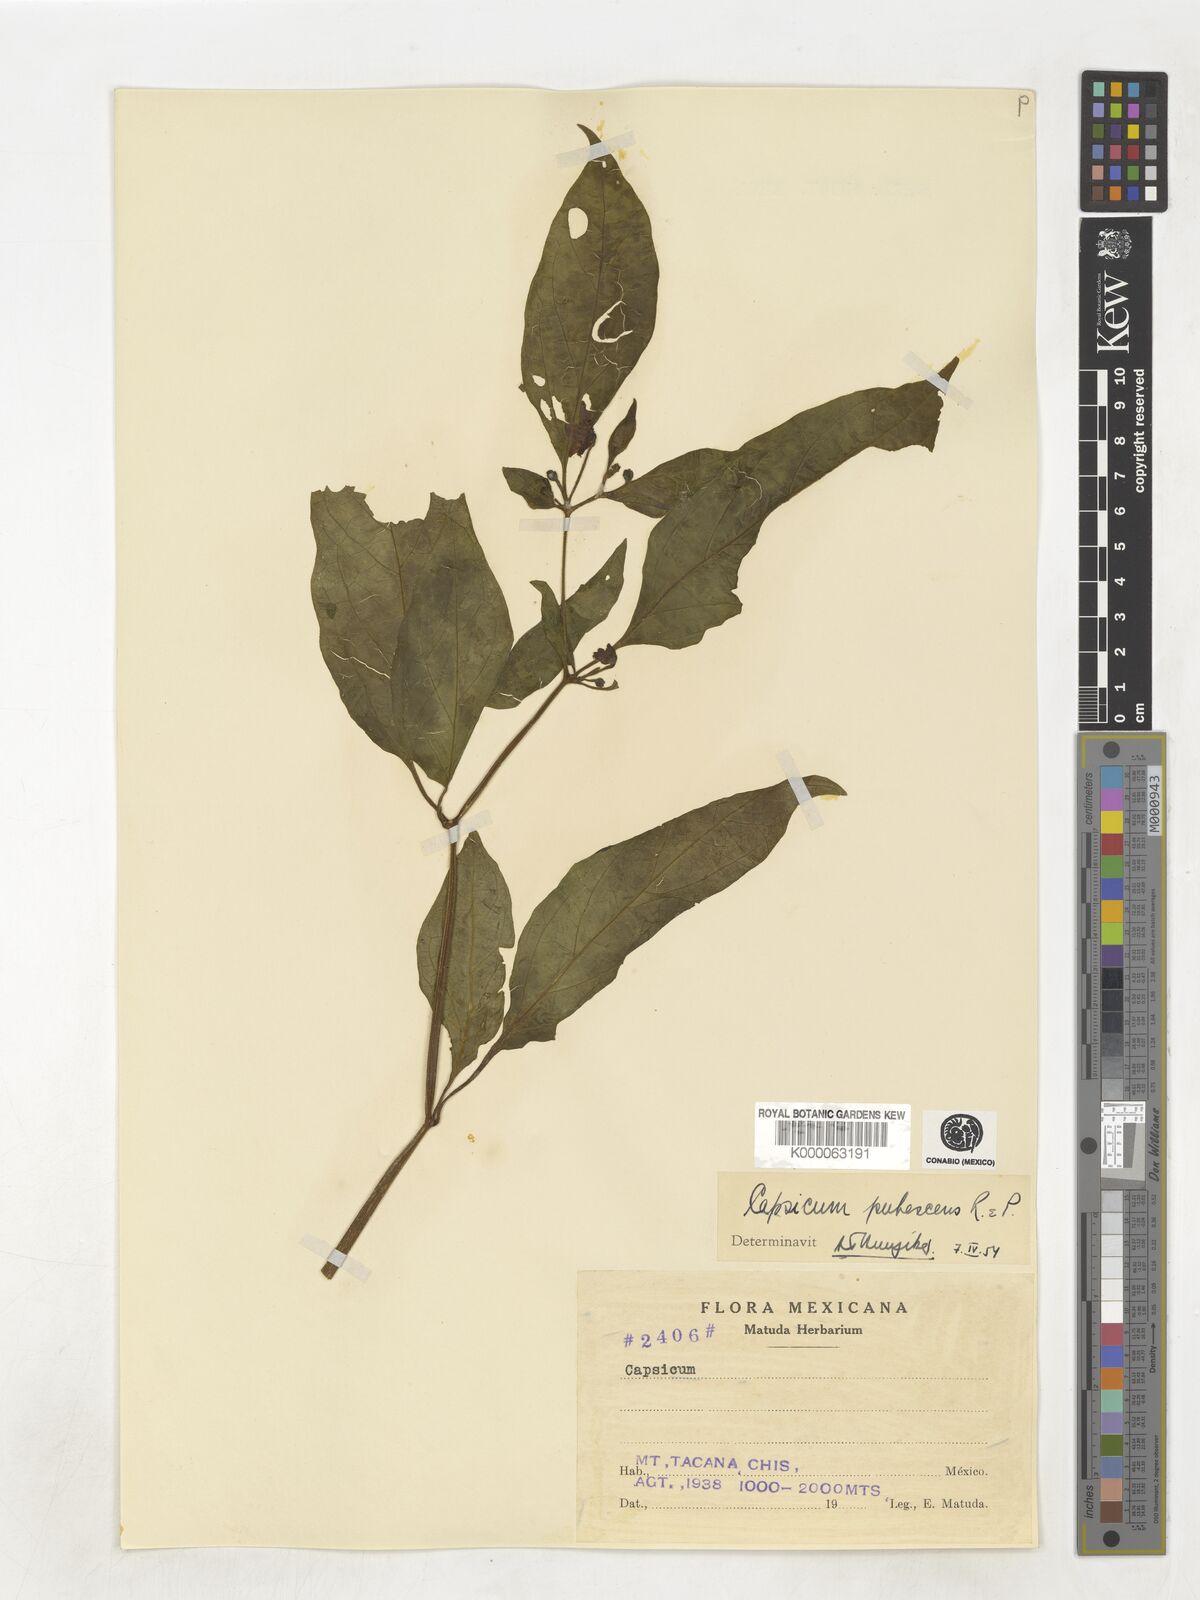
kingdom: Plantae
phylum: Tracheophyta
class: Magnoliopsida
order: Solanales
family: Solanaceae
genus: Capsicum
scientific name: Capsicum
